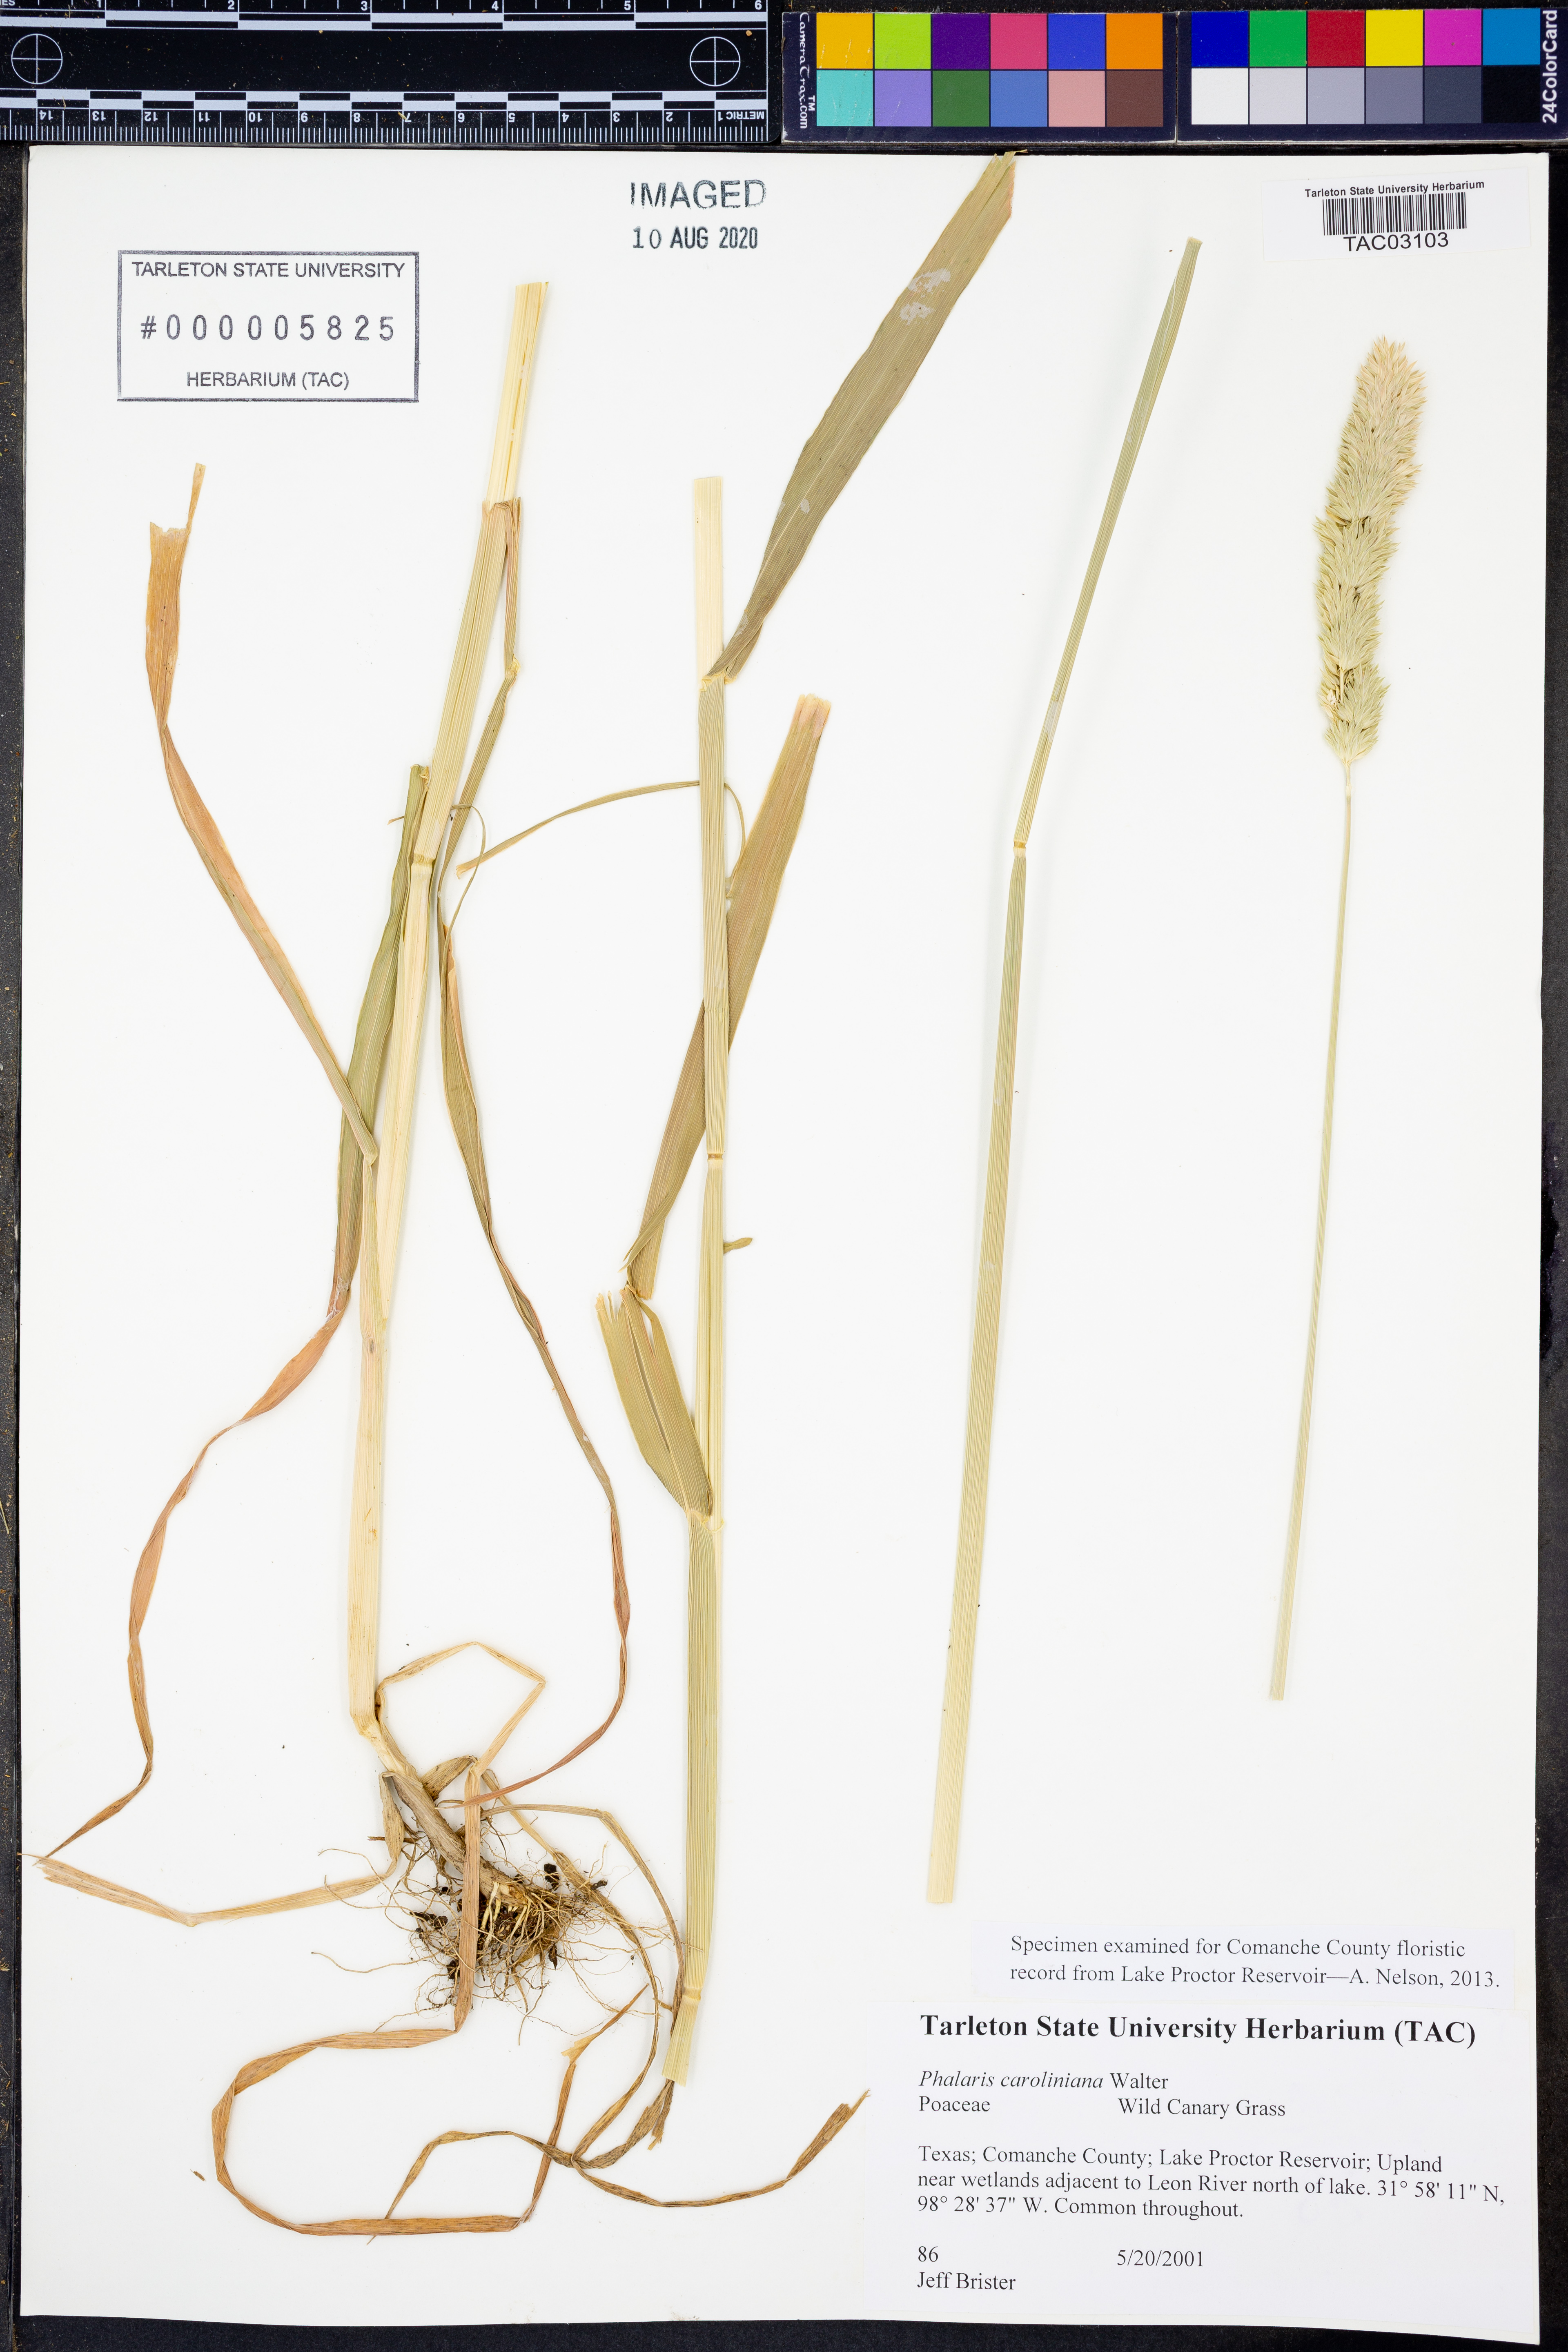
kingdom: Plantae
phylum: Tracheophyta
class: Liliopsida
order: Poales
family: Poaceae
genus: Phalaris
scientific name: Phalaris caroliniana
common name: May grass
